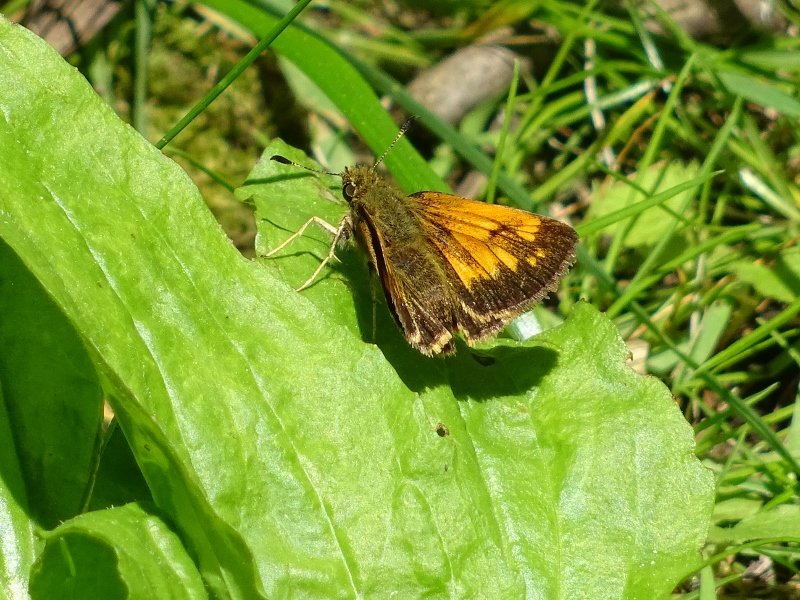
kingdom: Animalia
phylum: Arthropoda
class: Insecta
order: Lepidoptera
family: Hesperiidae
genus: Lon
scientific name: Lon hobomok
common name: Hobomok Skipper
